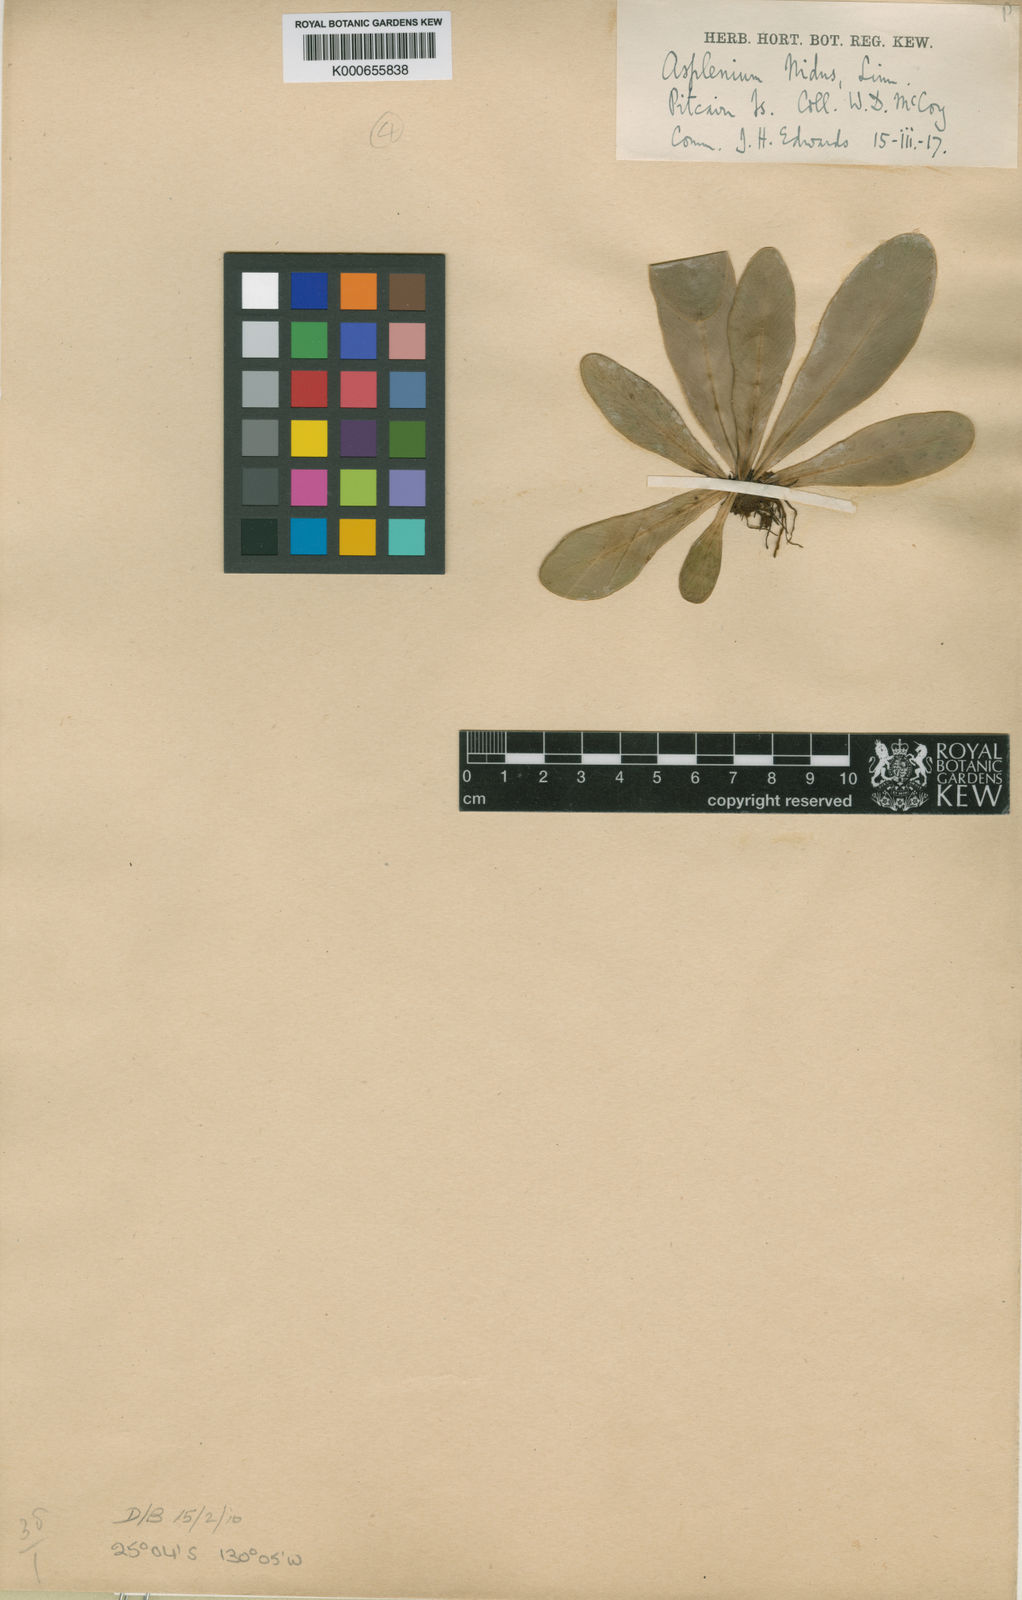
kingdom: Plantae
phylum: Tracheophyta
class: Polypodiopsida
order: Polypodiales
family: Aspleniaceae
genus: Asplenium
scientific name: Asplenium
